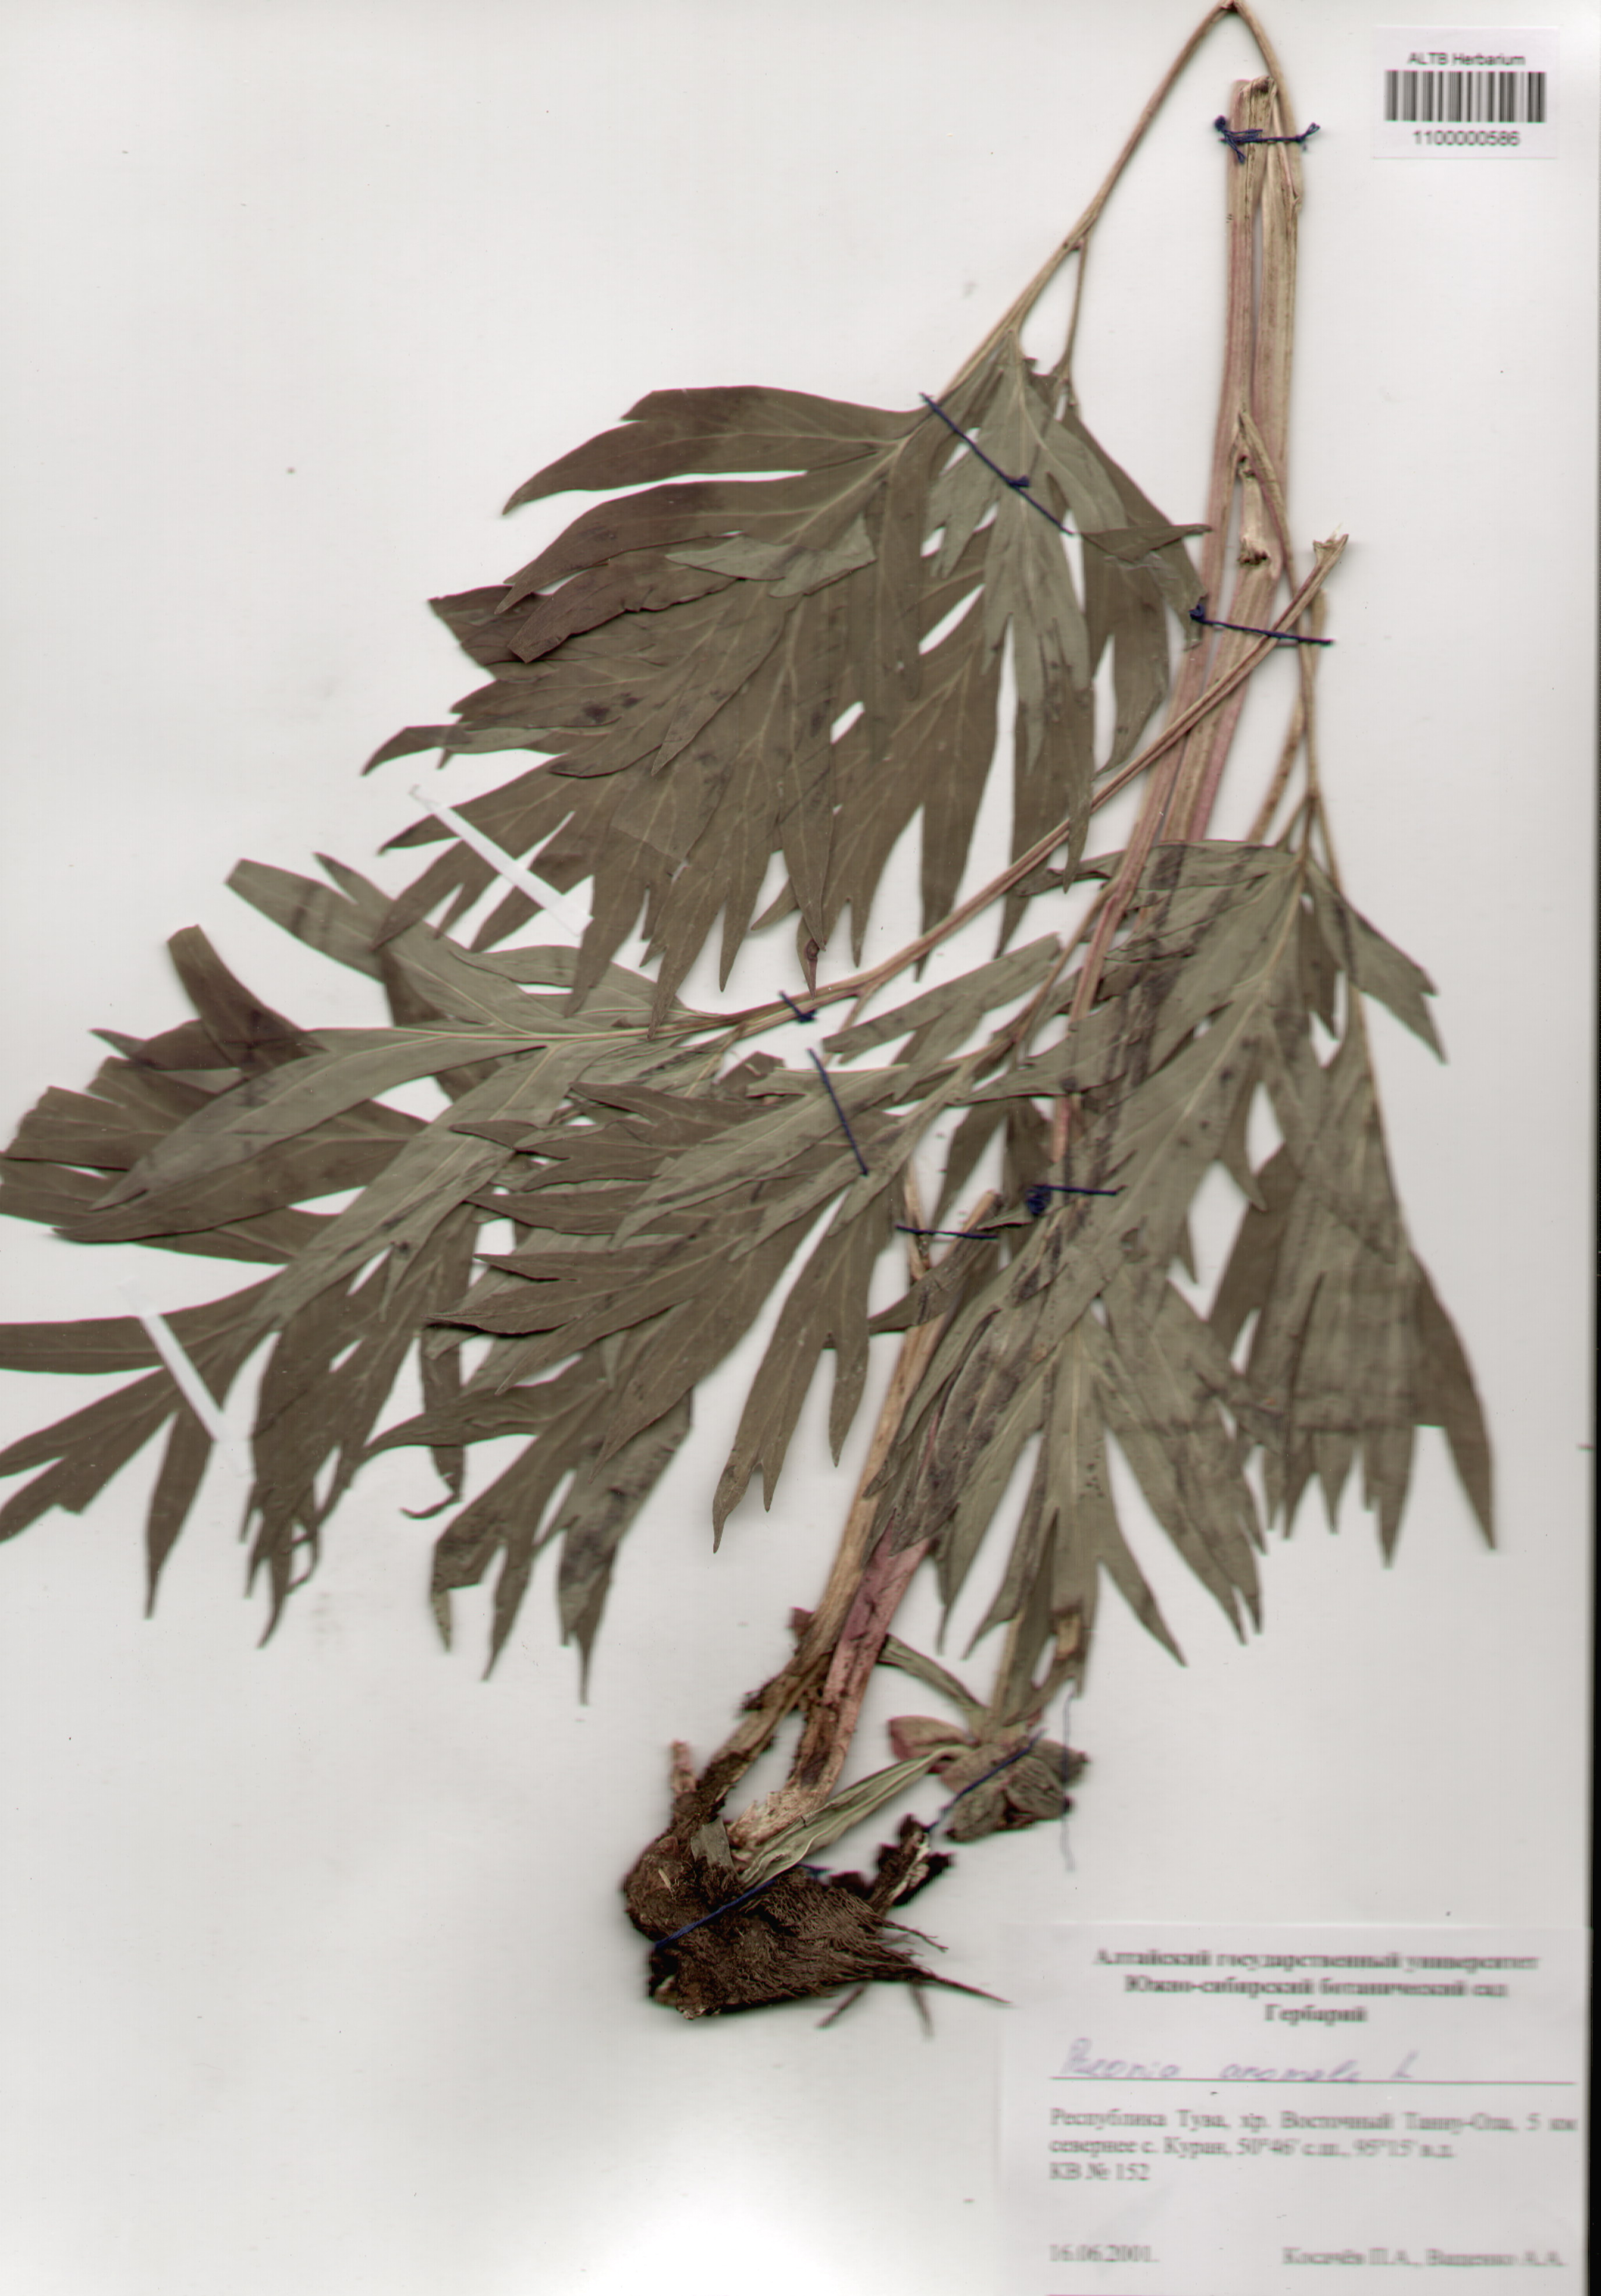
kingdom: Plantae
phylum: Tracheophyta
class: Magnoliopsida
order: Saxifragales
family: Paeoniaceae
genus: Paeonia
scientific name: Paeonia anomala
